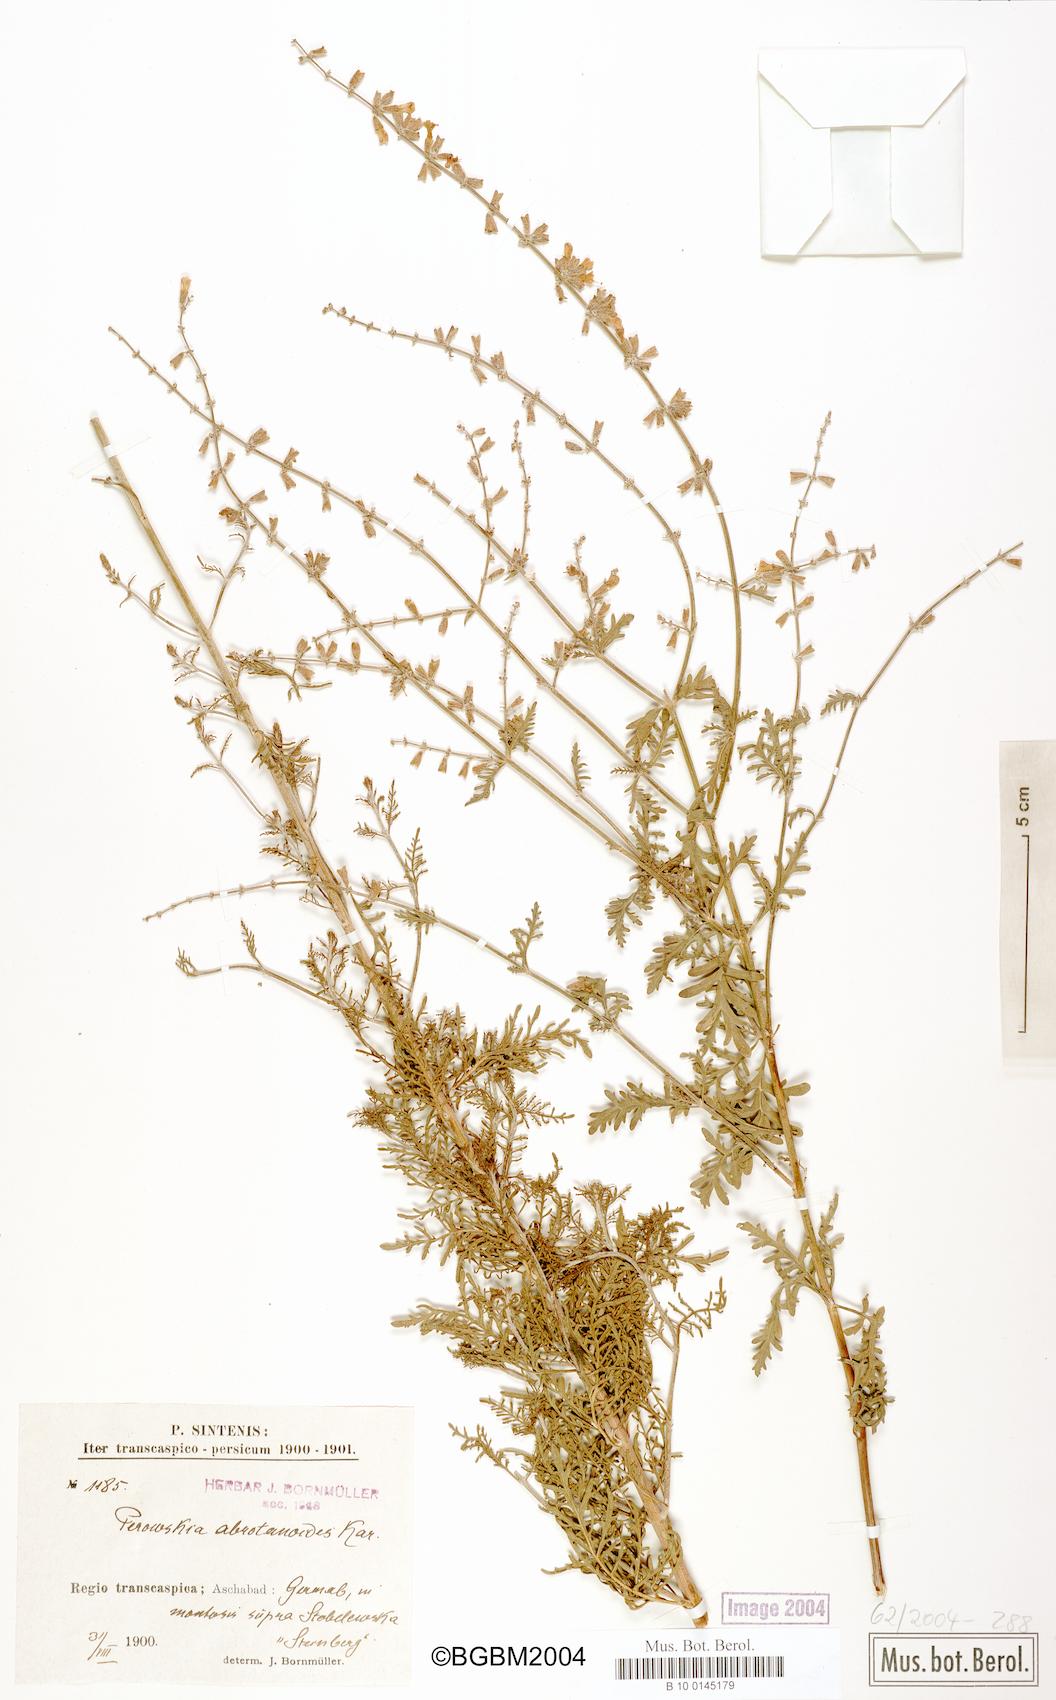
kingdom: Plantae
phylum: Tracheophyta
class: Magnoliopsida
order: Lamiales
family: Lamiaceae
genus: Salvia
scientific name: Salvia abrotanoides
